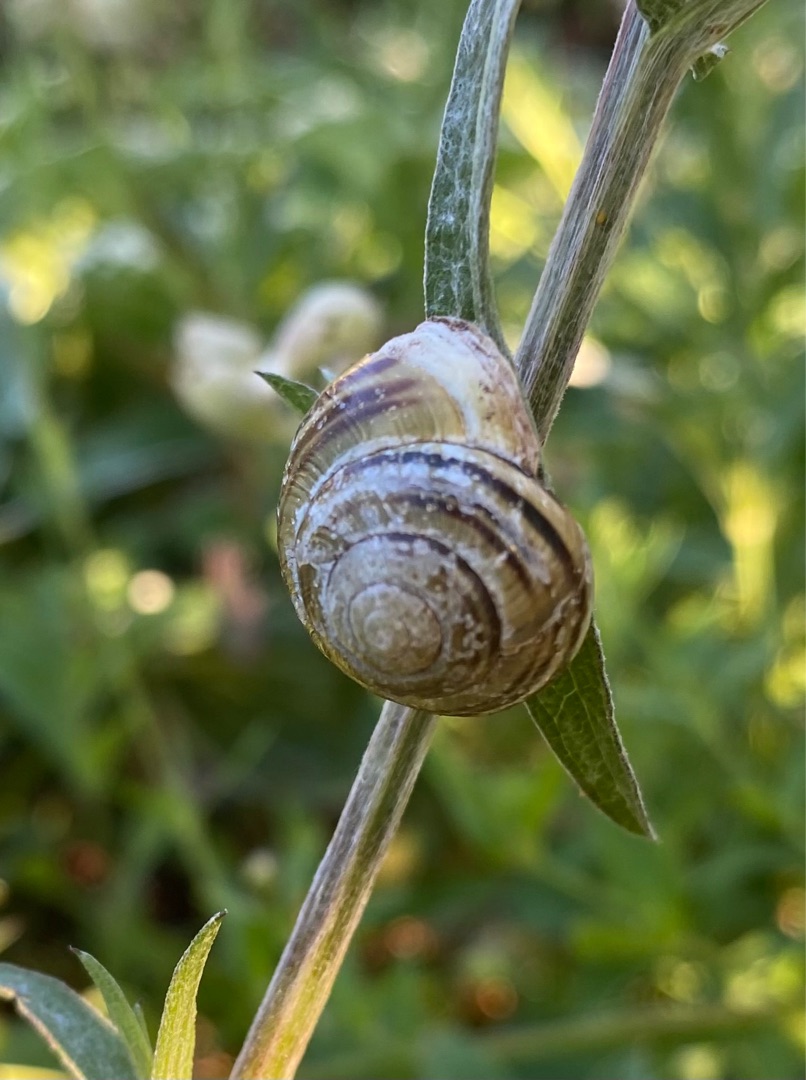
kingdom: Animalia
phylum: Mollusca
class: Gastropoda
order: Stylommatophora
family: Helicidae
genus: Cepaea
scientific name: Cepaea nemoralis
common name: Lundsnegl
